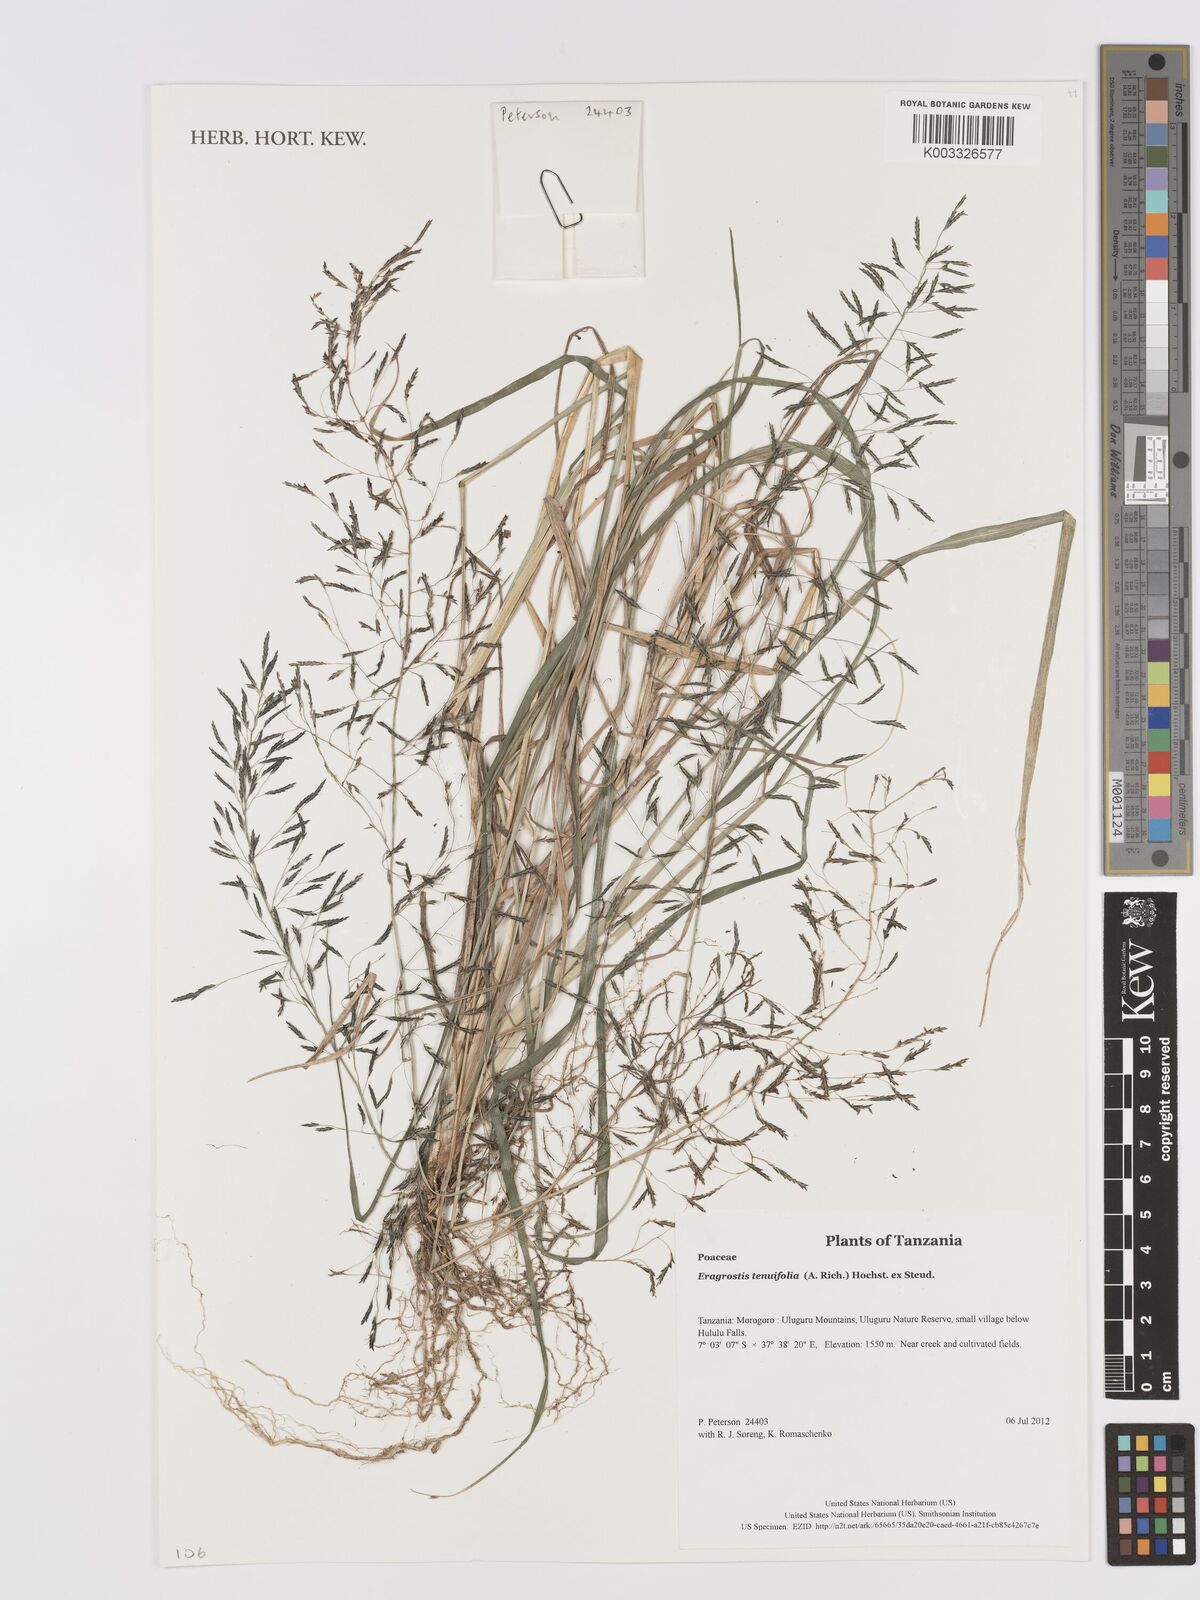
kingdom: Plantae
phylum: Tracheophyta
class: Liliopsida
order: Poales
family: Poaceae
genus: Eragrostis
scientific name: Eragrostis tenuifolia
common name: Elastic grass
